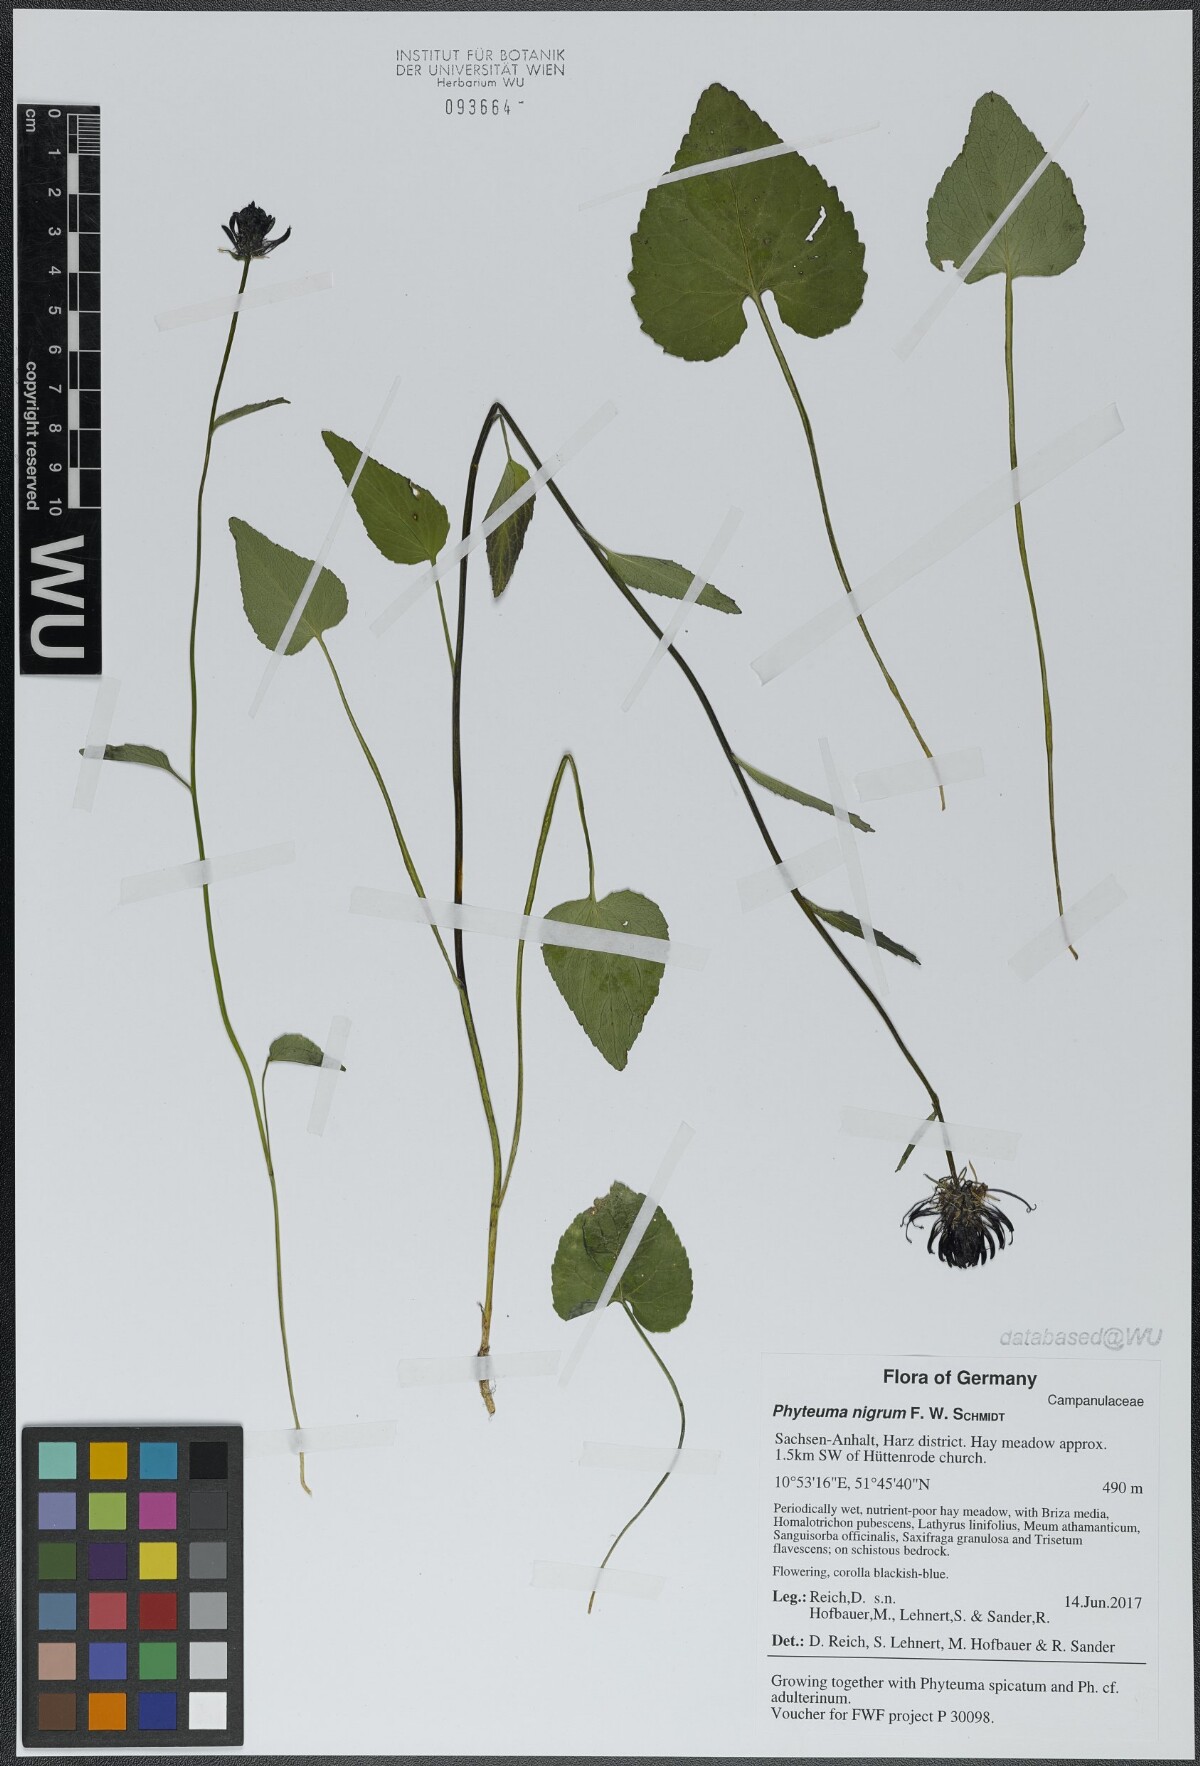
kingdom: Plantae
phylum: Tracheophyta
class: Magnoliopsida
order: Asterales
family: Campanulaceae
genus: Phyteuma
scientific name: Phyteuma nigrum
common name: Black rampion
